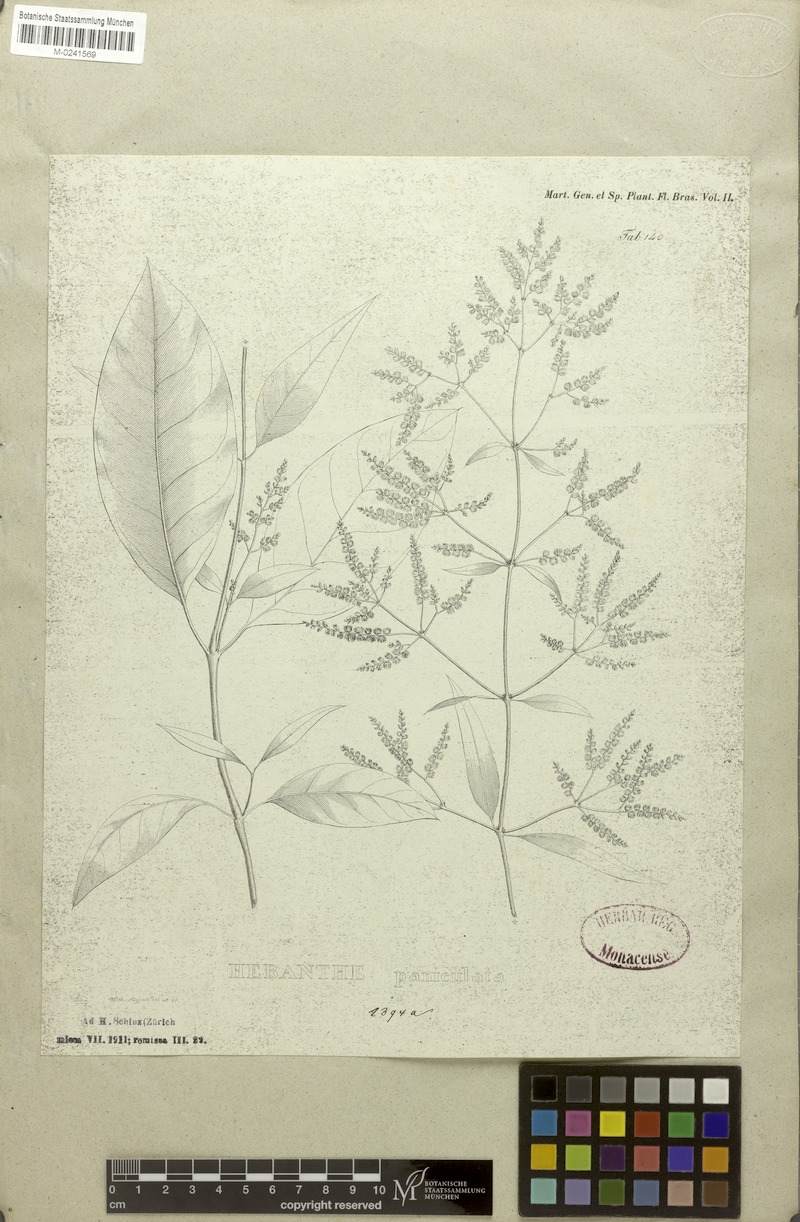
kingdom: Plantae
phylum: Tracheophyta
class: Magnoliopsida
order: Caryophyllales
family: Amaranthaceae
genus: Hebanthe
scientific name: Hebanthe erianthos
